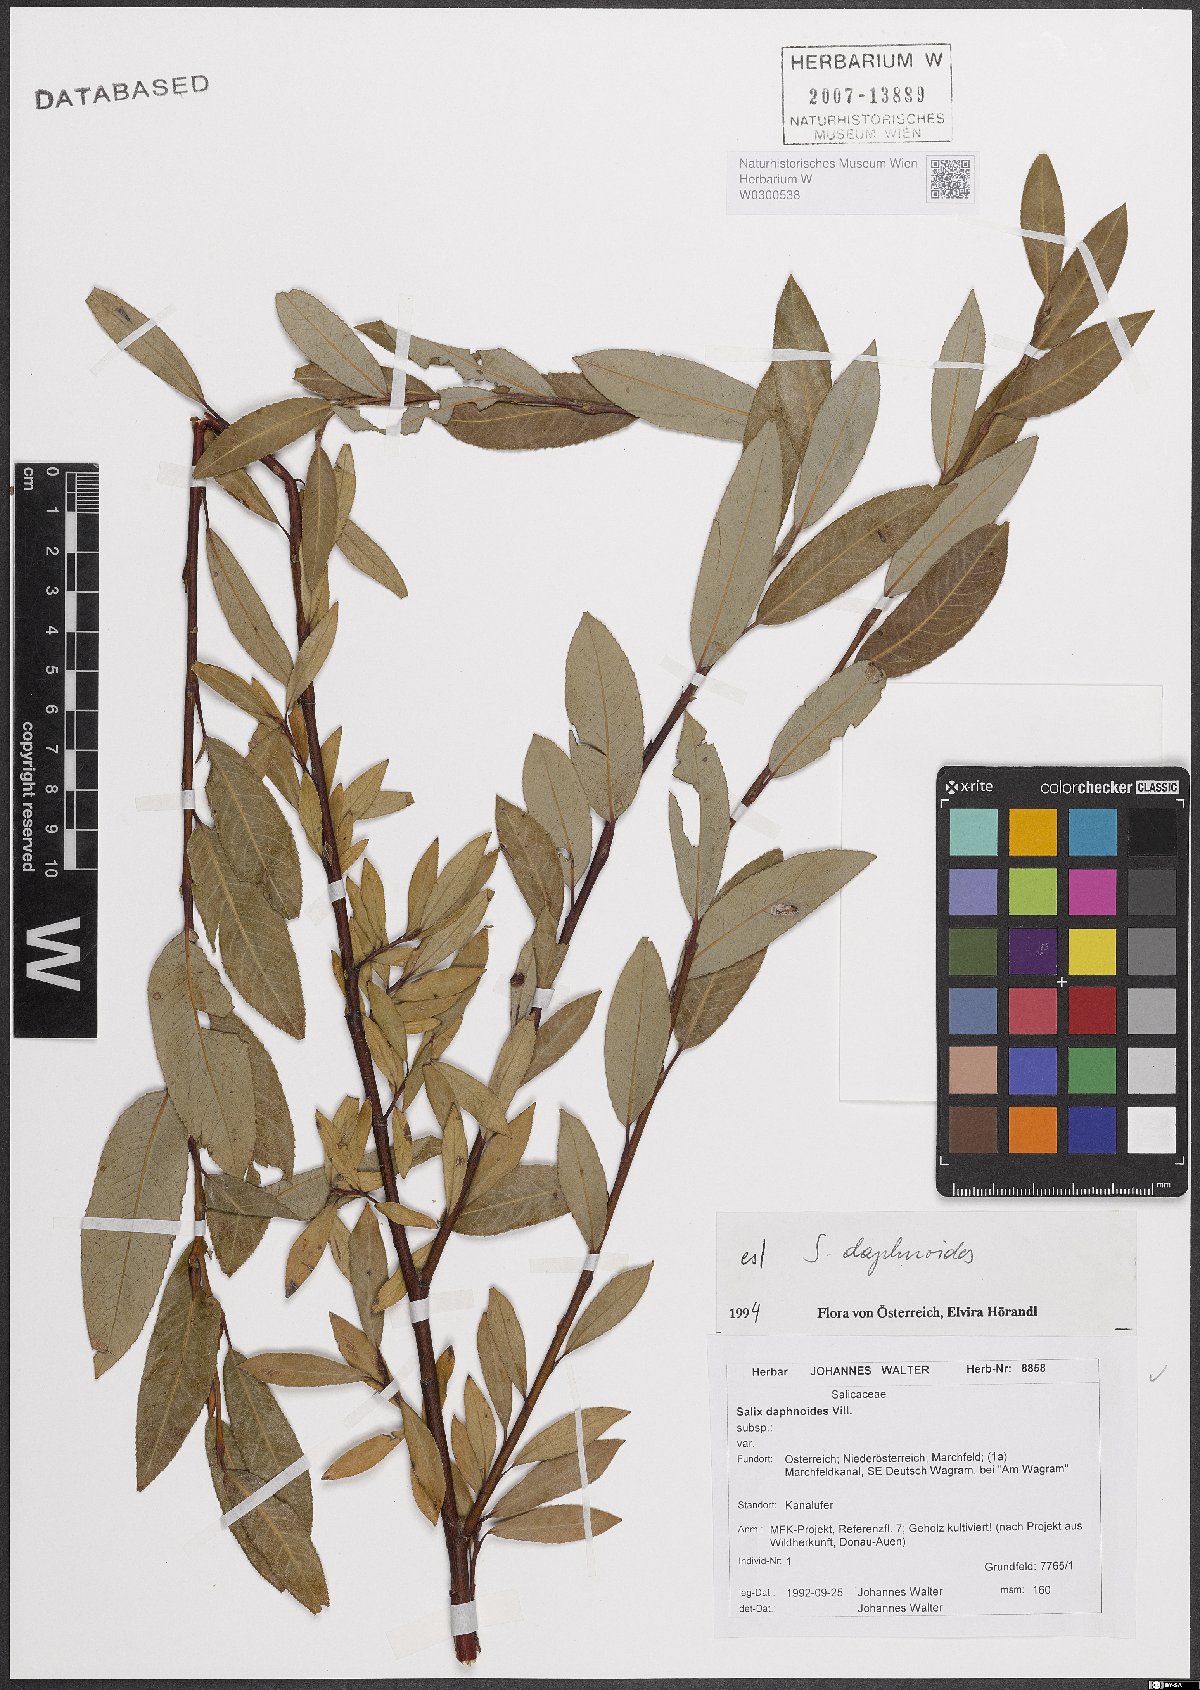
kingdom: Plantae
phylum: Tracheophyta
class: Magnoliopsida
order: Malpighiales
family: Salicaceae
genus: Salix
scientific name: Salix daphnoides
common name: European violet-willow
